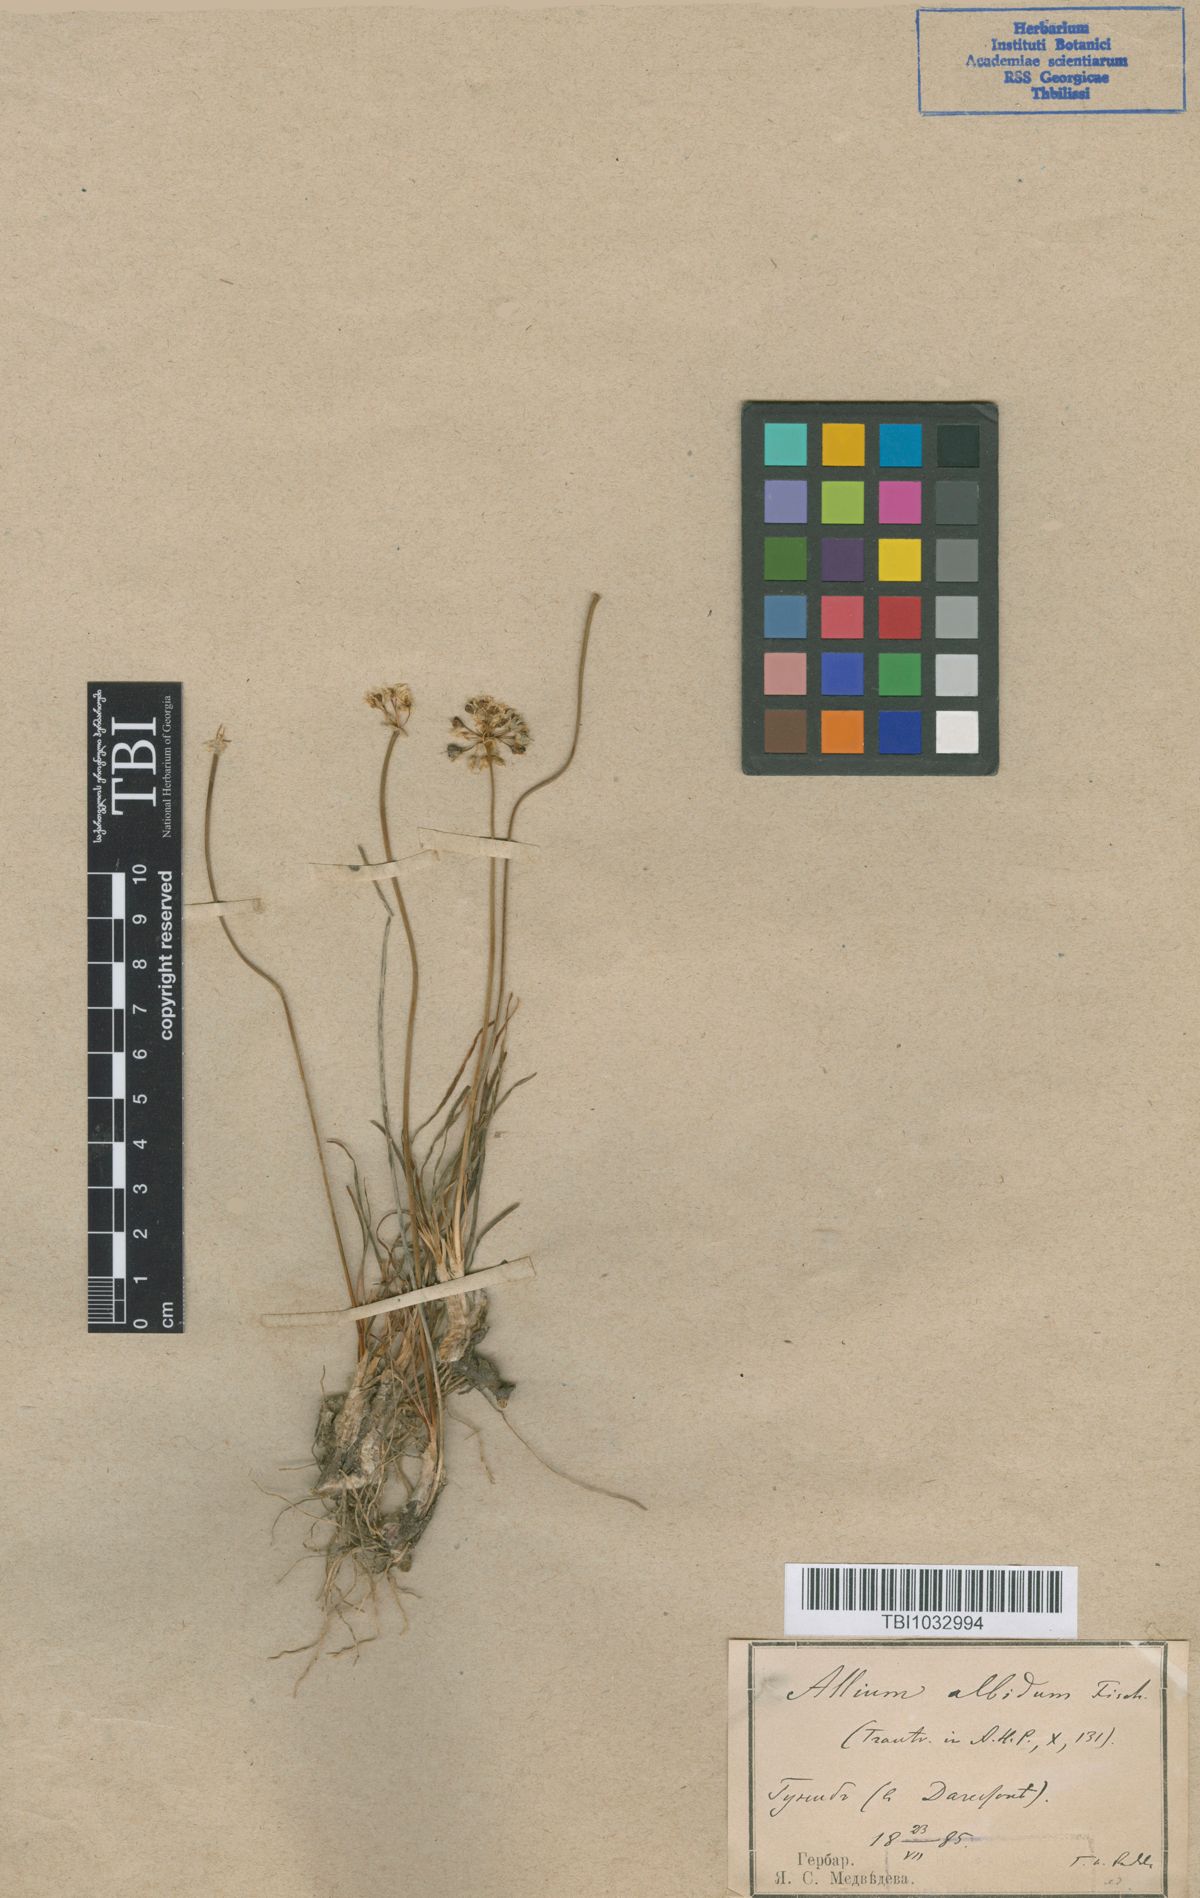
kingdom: Plantae
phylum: Tracheophyta
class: Liliopsida
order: Asparagales
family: Amaryllidaceae
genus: Allium
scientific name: Allium denudatum
